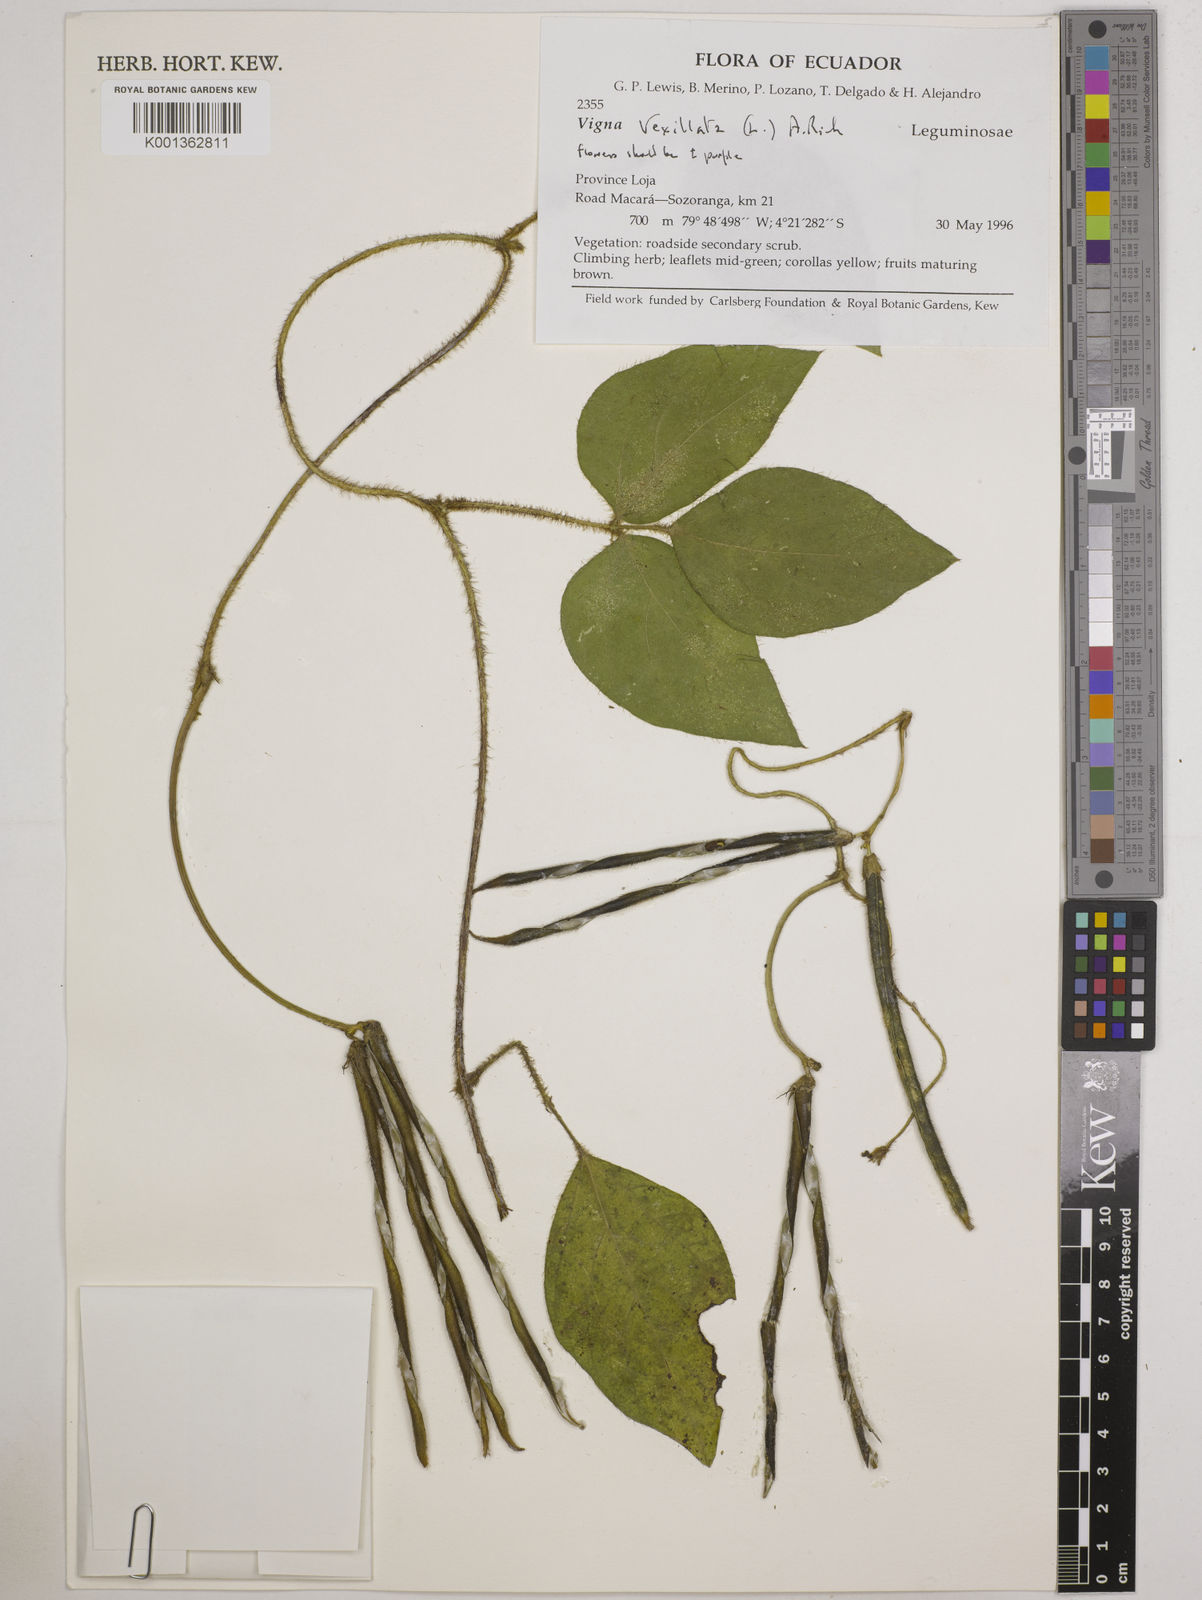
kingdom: Plantae
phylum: Tracheophyta
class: Magnoliopsida
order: Fabales
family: Fabaceae
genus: Vigna
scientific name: Vigna vexillata
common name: Zombi pea
